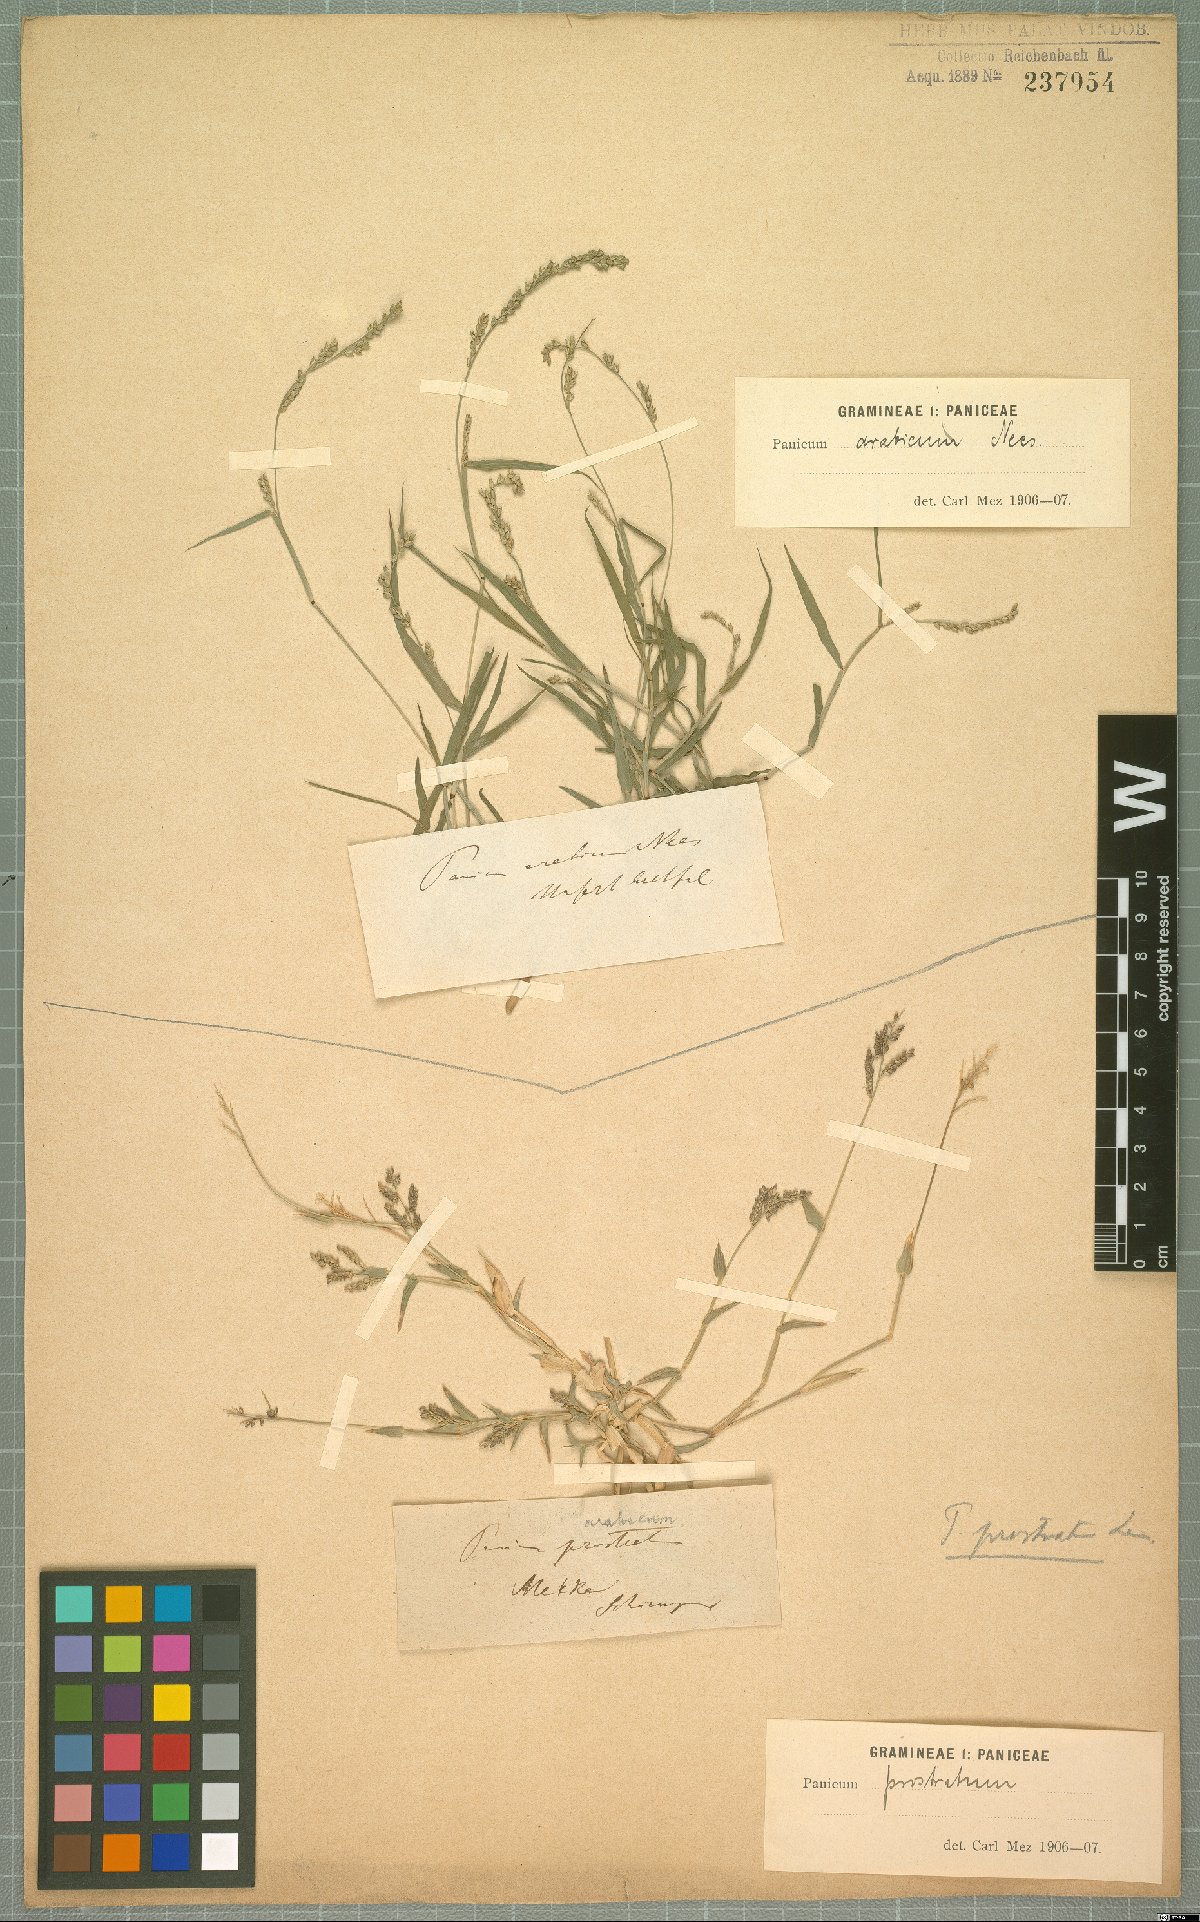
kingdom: Plantae
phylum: Tracheophyta
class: Liliopsida
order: Poales
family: Poaceae
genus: Setaria
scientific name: Setaria desertorum
